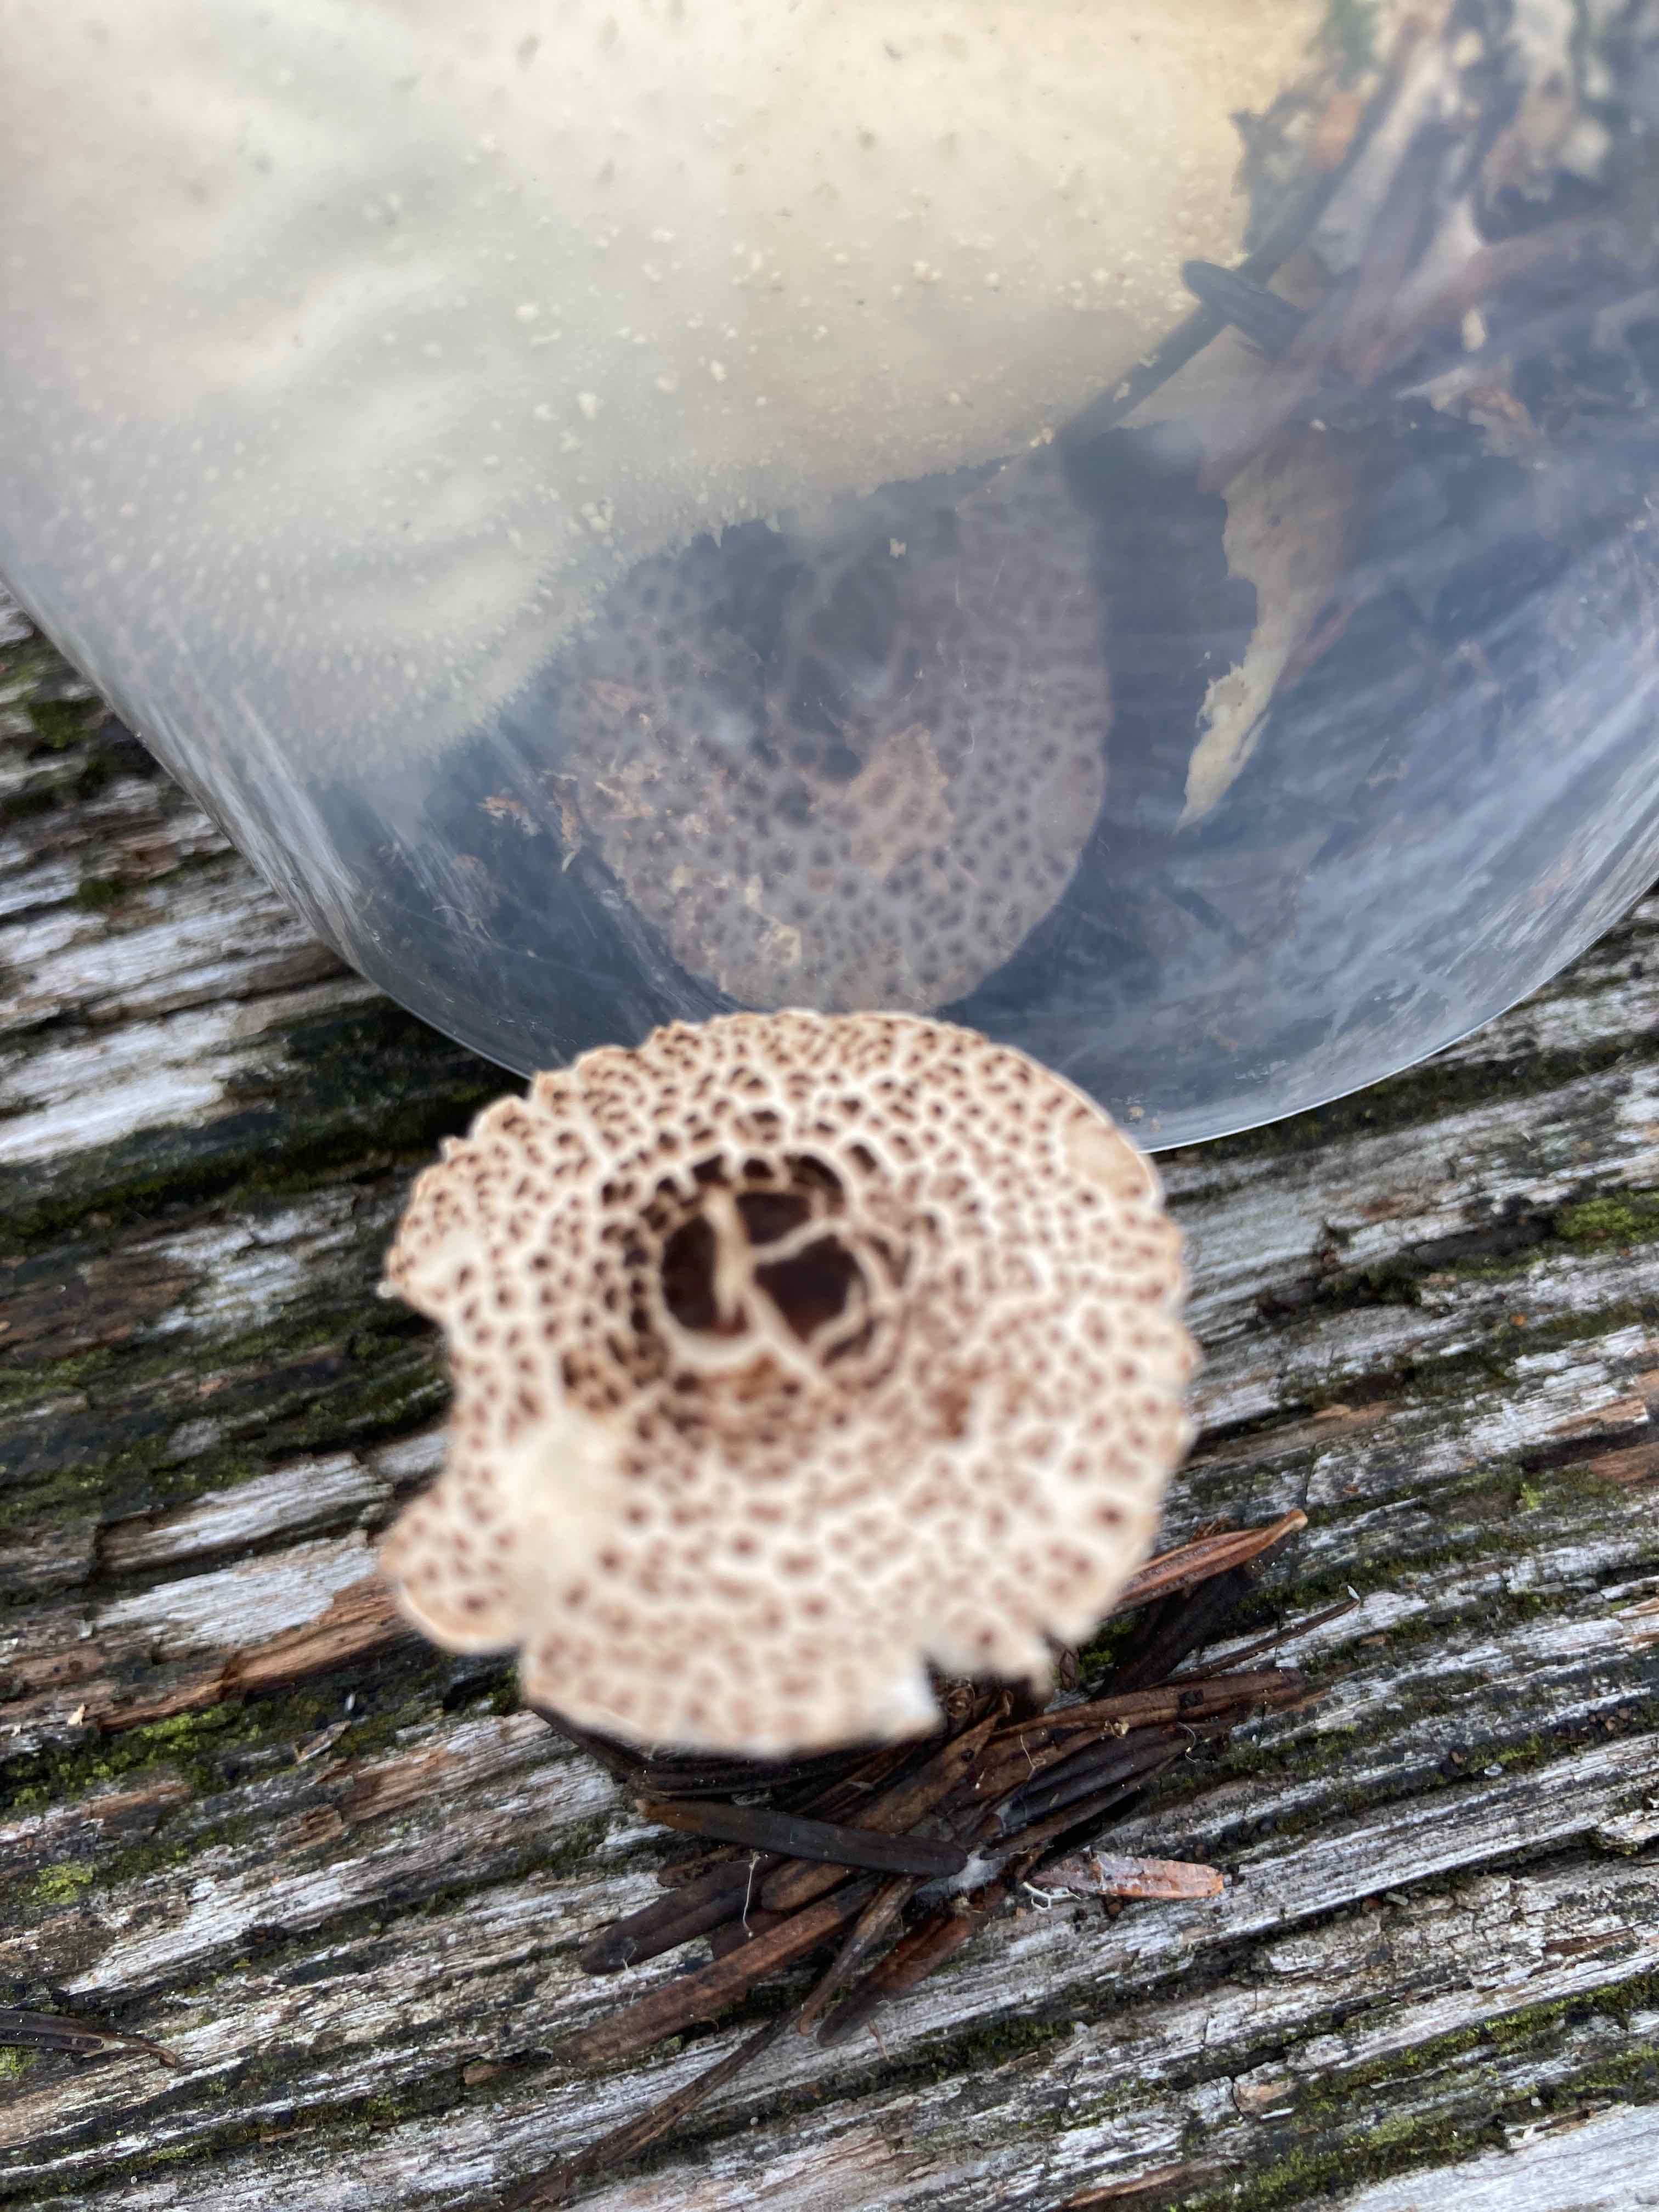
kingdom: Fungi
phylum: Basidiomycota
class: Agaricomycetes
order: Agaricales
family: Agaricaceae
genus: Lepiota
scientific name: Lepiota felina
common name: sortskællet parasolhat
